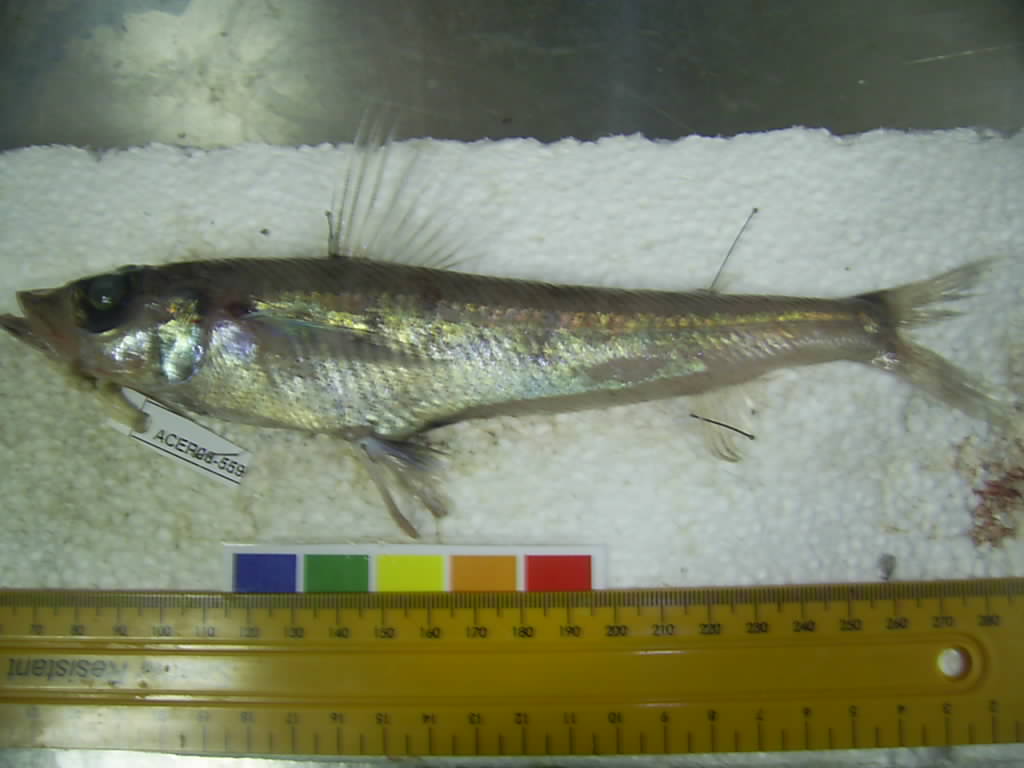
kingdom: Animalia
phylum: Chordata
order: Aulopiformes
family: Chlorophthalmidae
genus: Chlorophthalmus
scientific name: Chlorophthalmus punctatus
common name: Spotted greeneye
